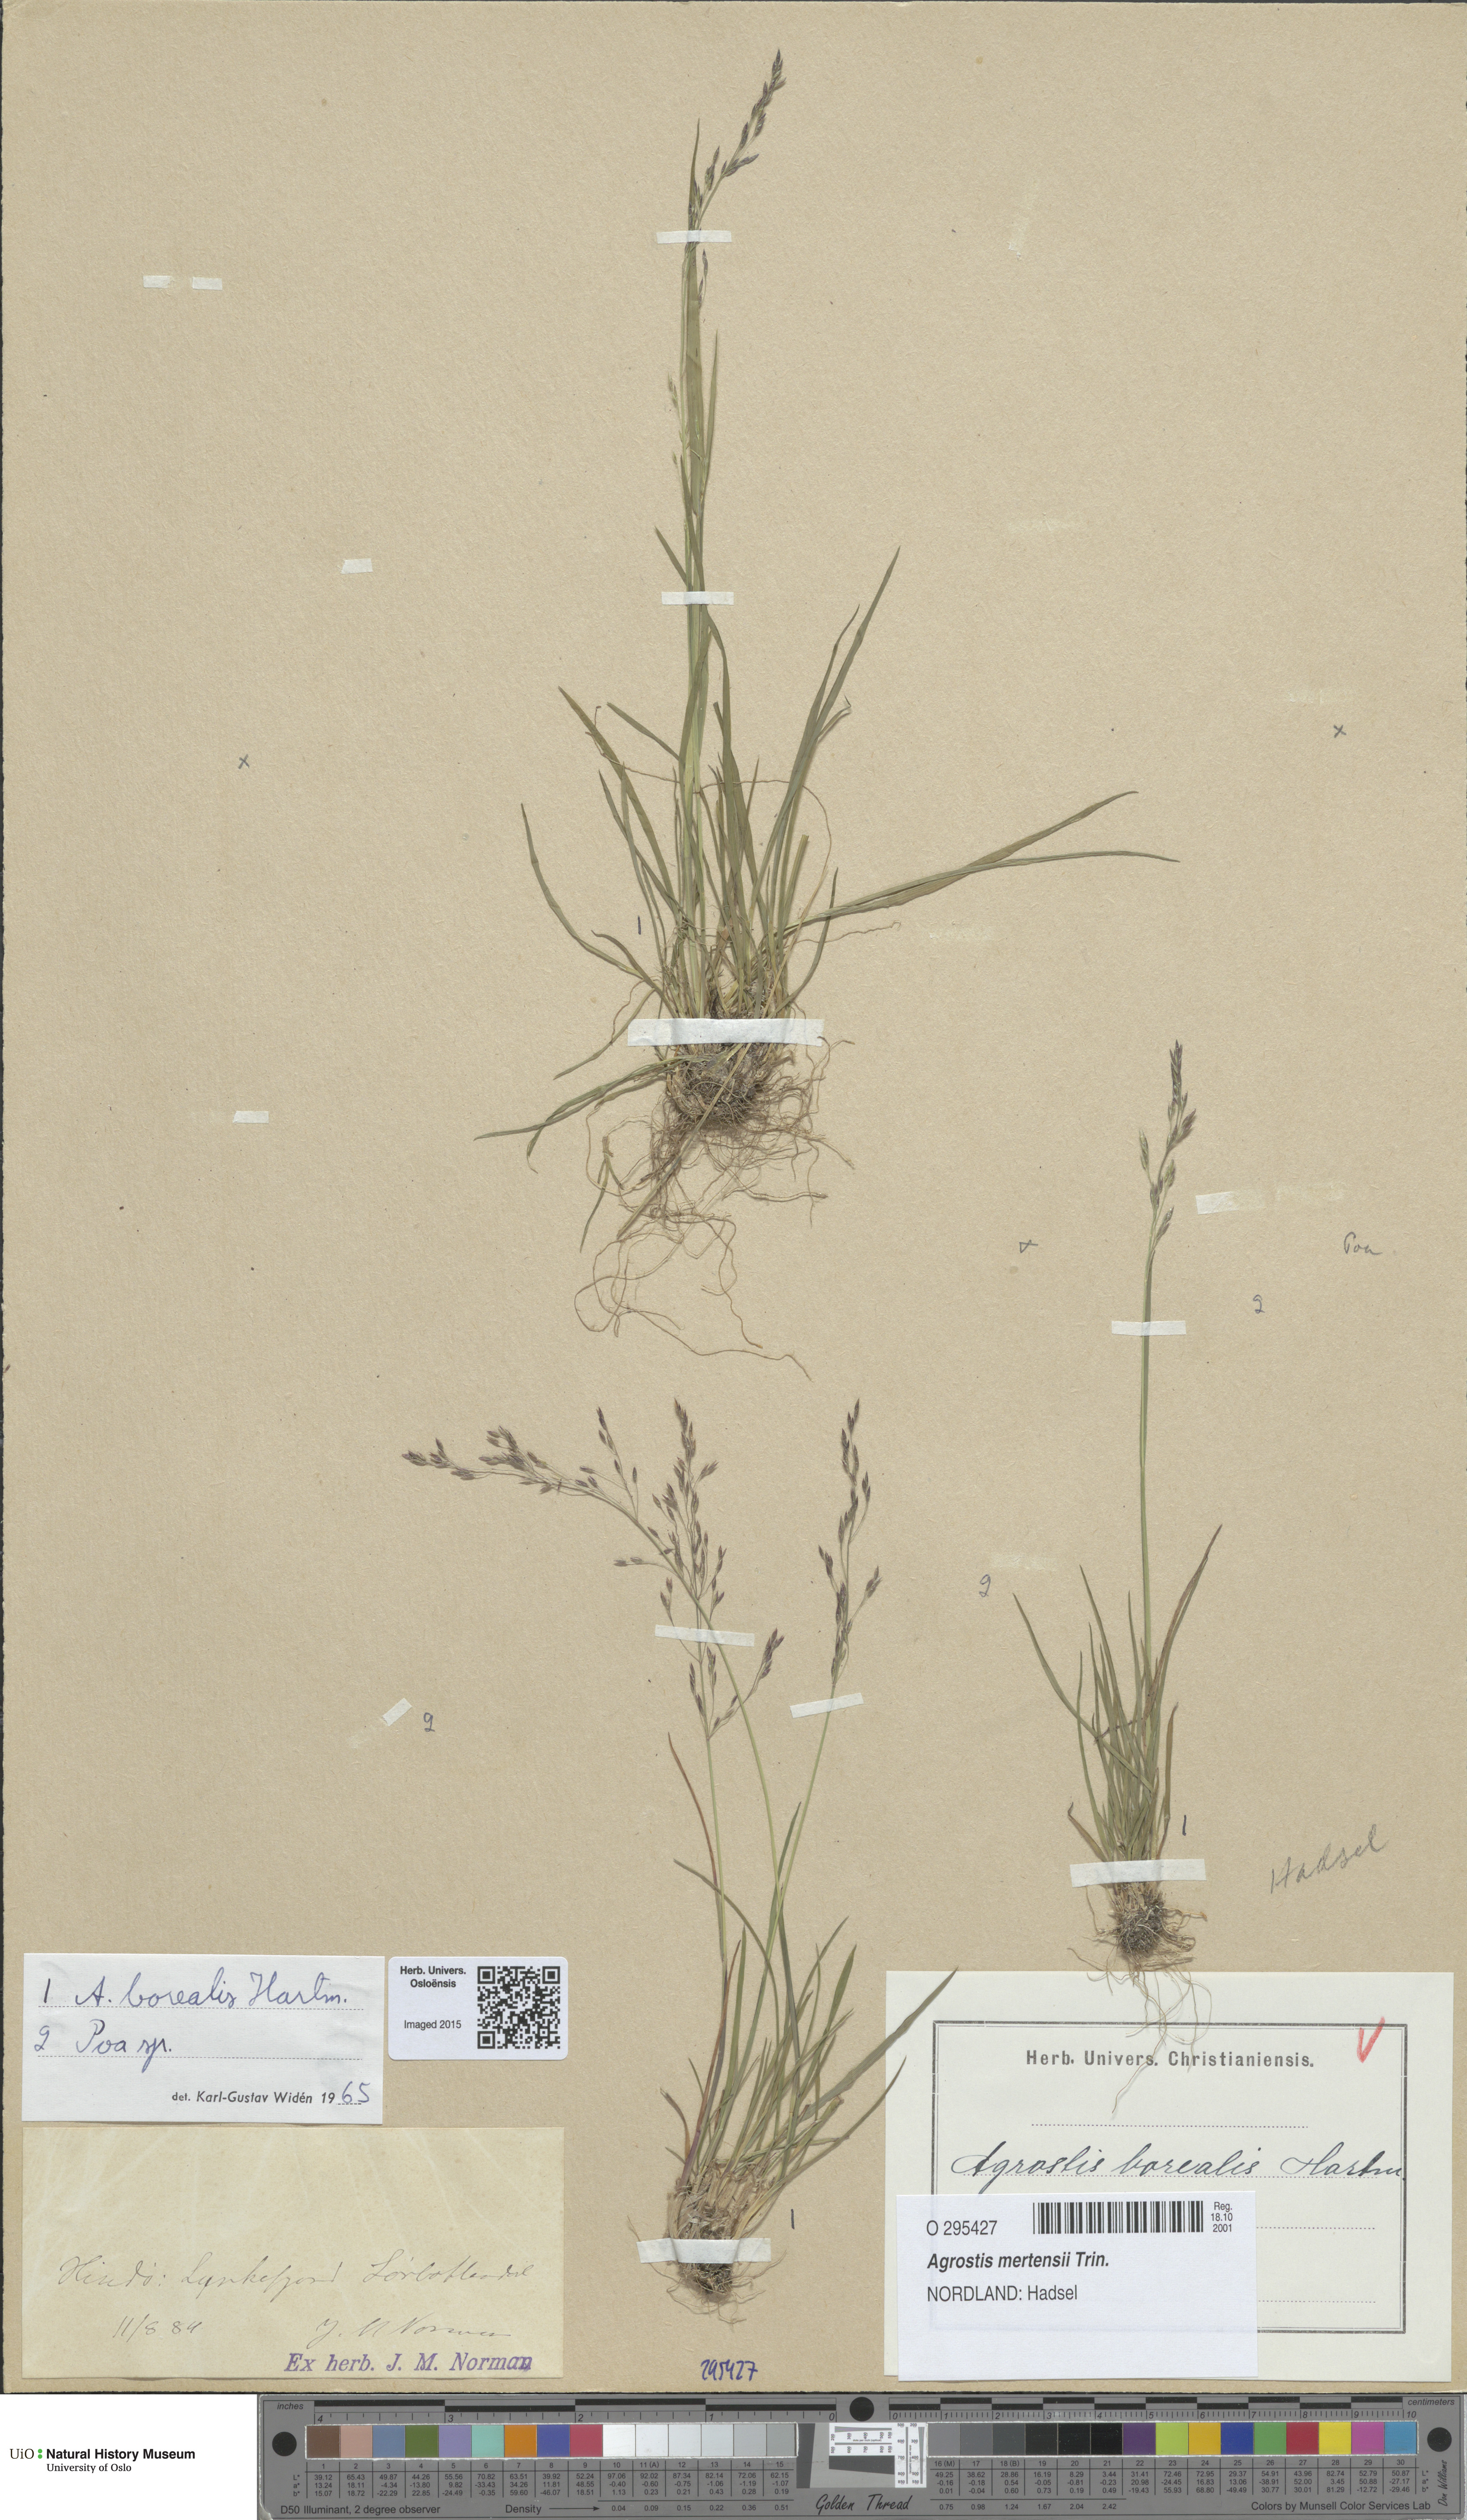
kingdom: Plantae
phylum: Tracheophyta
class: Liliopsida
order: Poales
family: Poaceae
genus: Agrostis
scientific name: Agrostis mertensii
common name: Northern bent
